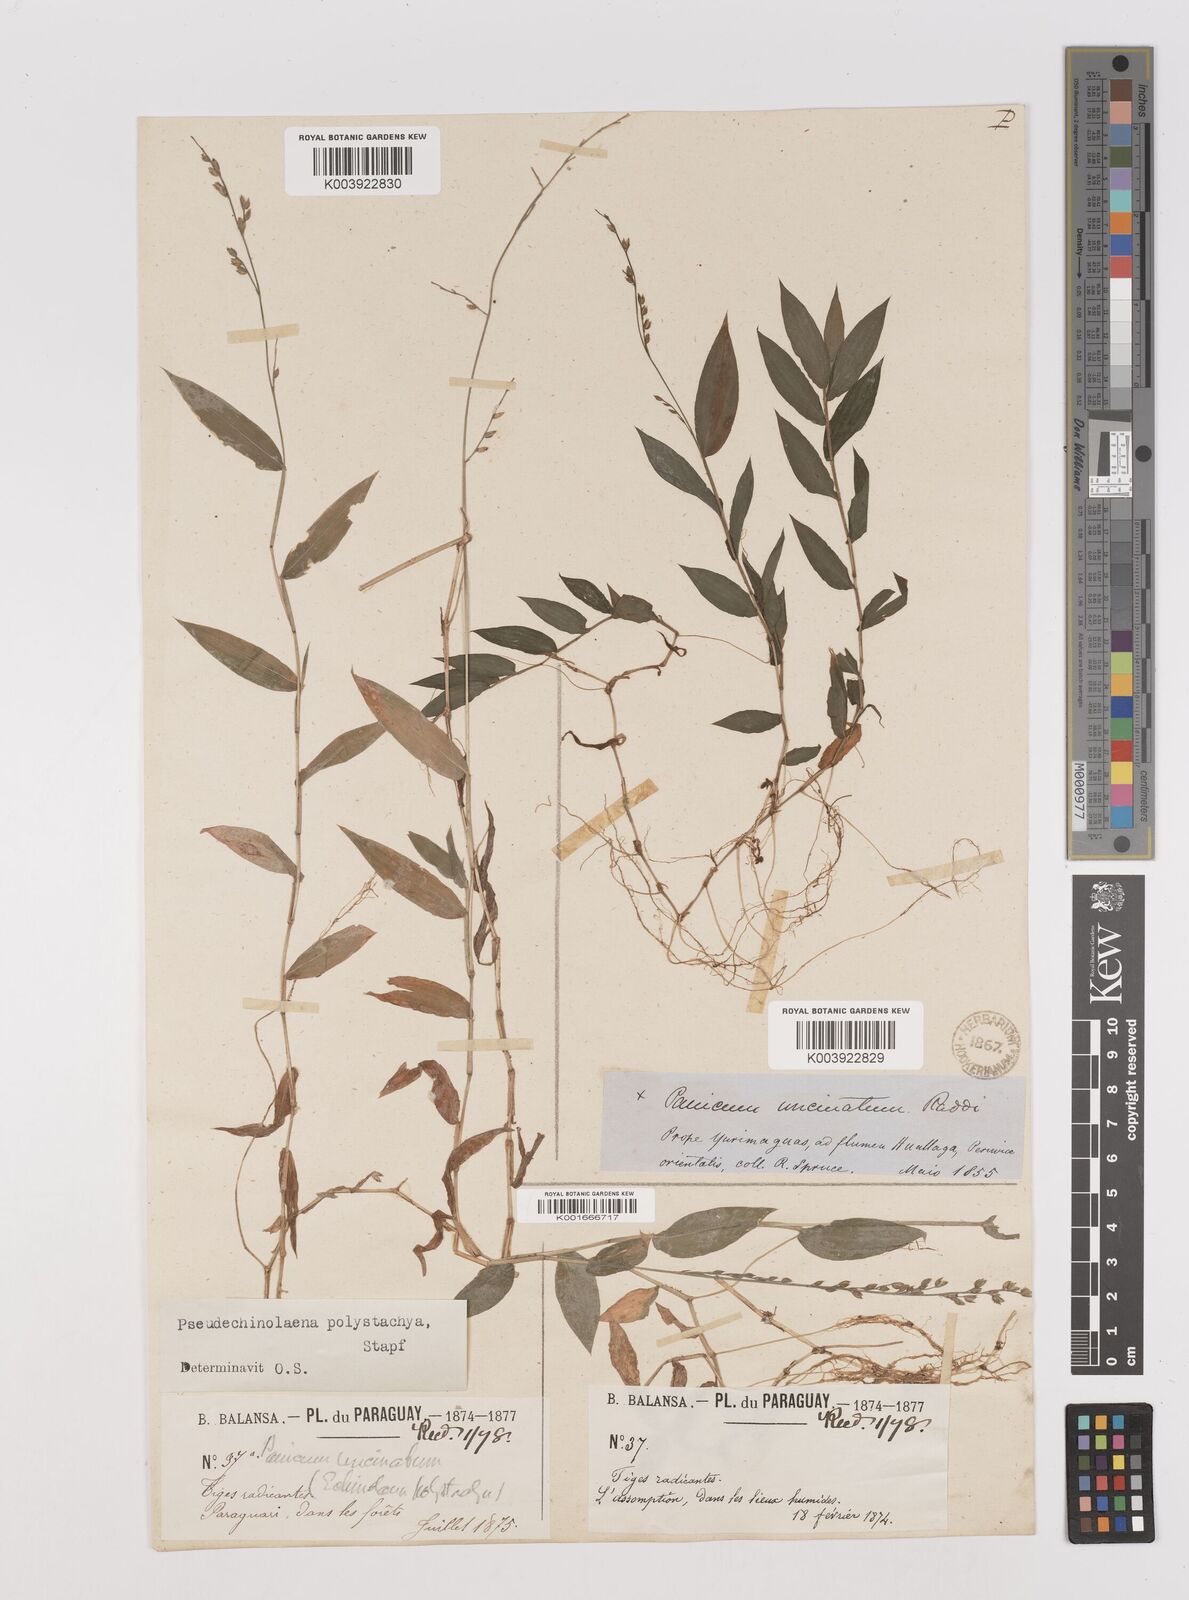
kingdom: Plantae
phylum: Tracheophyta
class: Liliopsida
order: Poales
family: Poaceae
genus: Pseudechinolaena
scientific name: Pseudechinolaena polystachya
